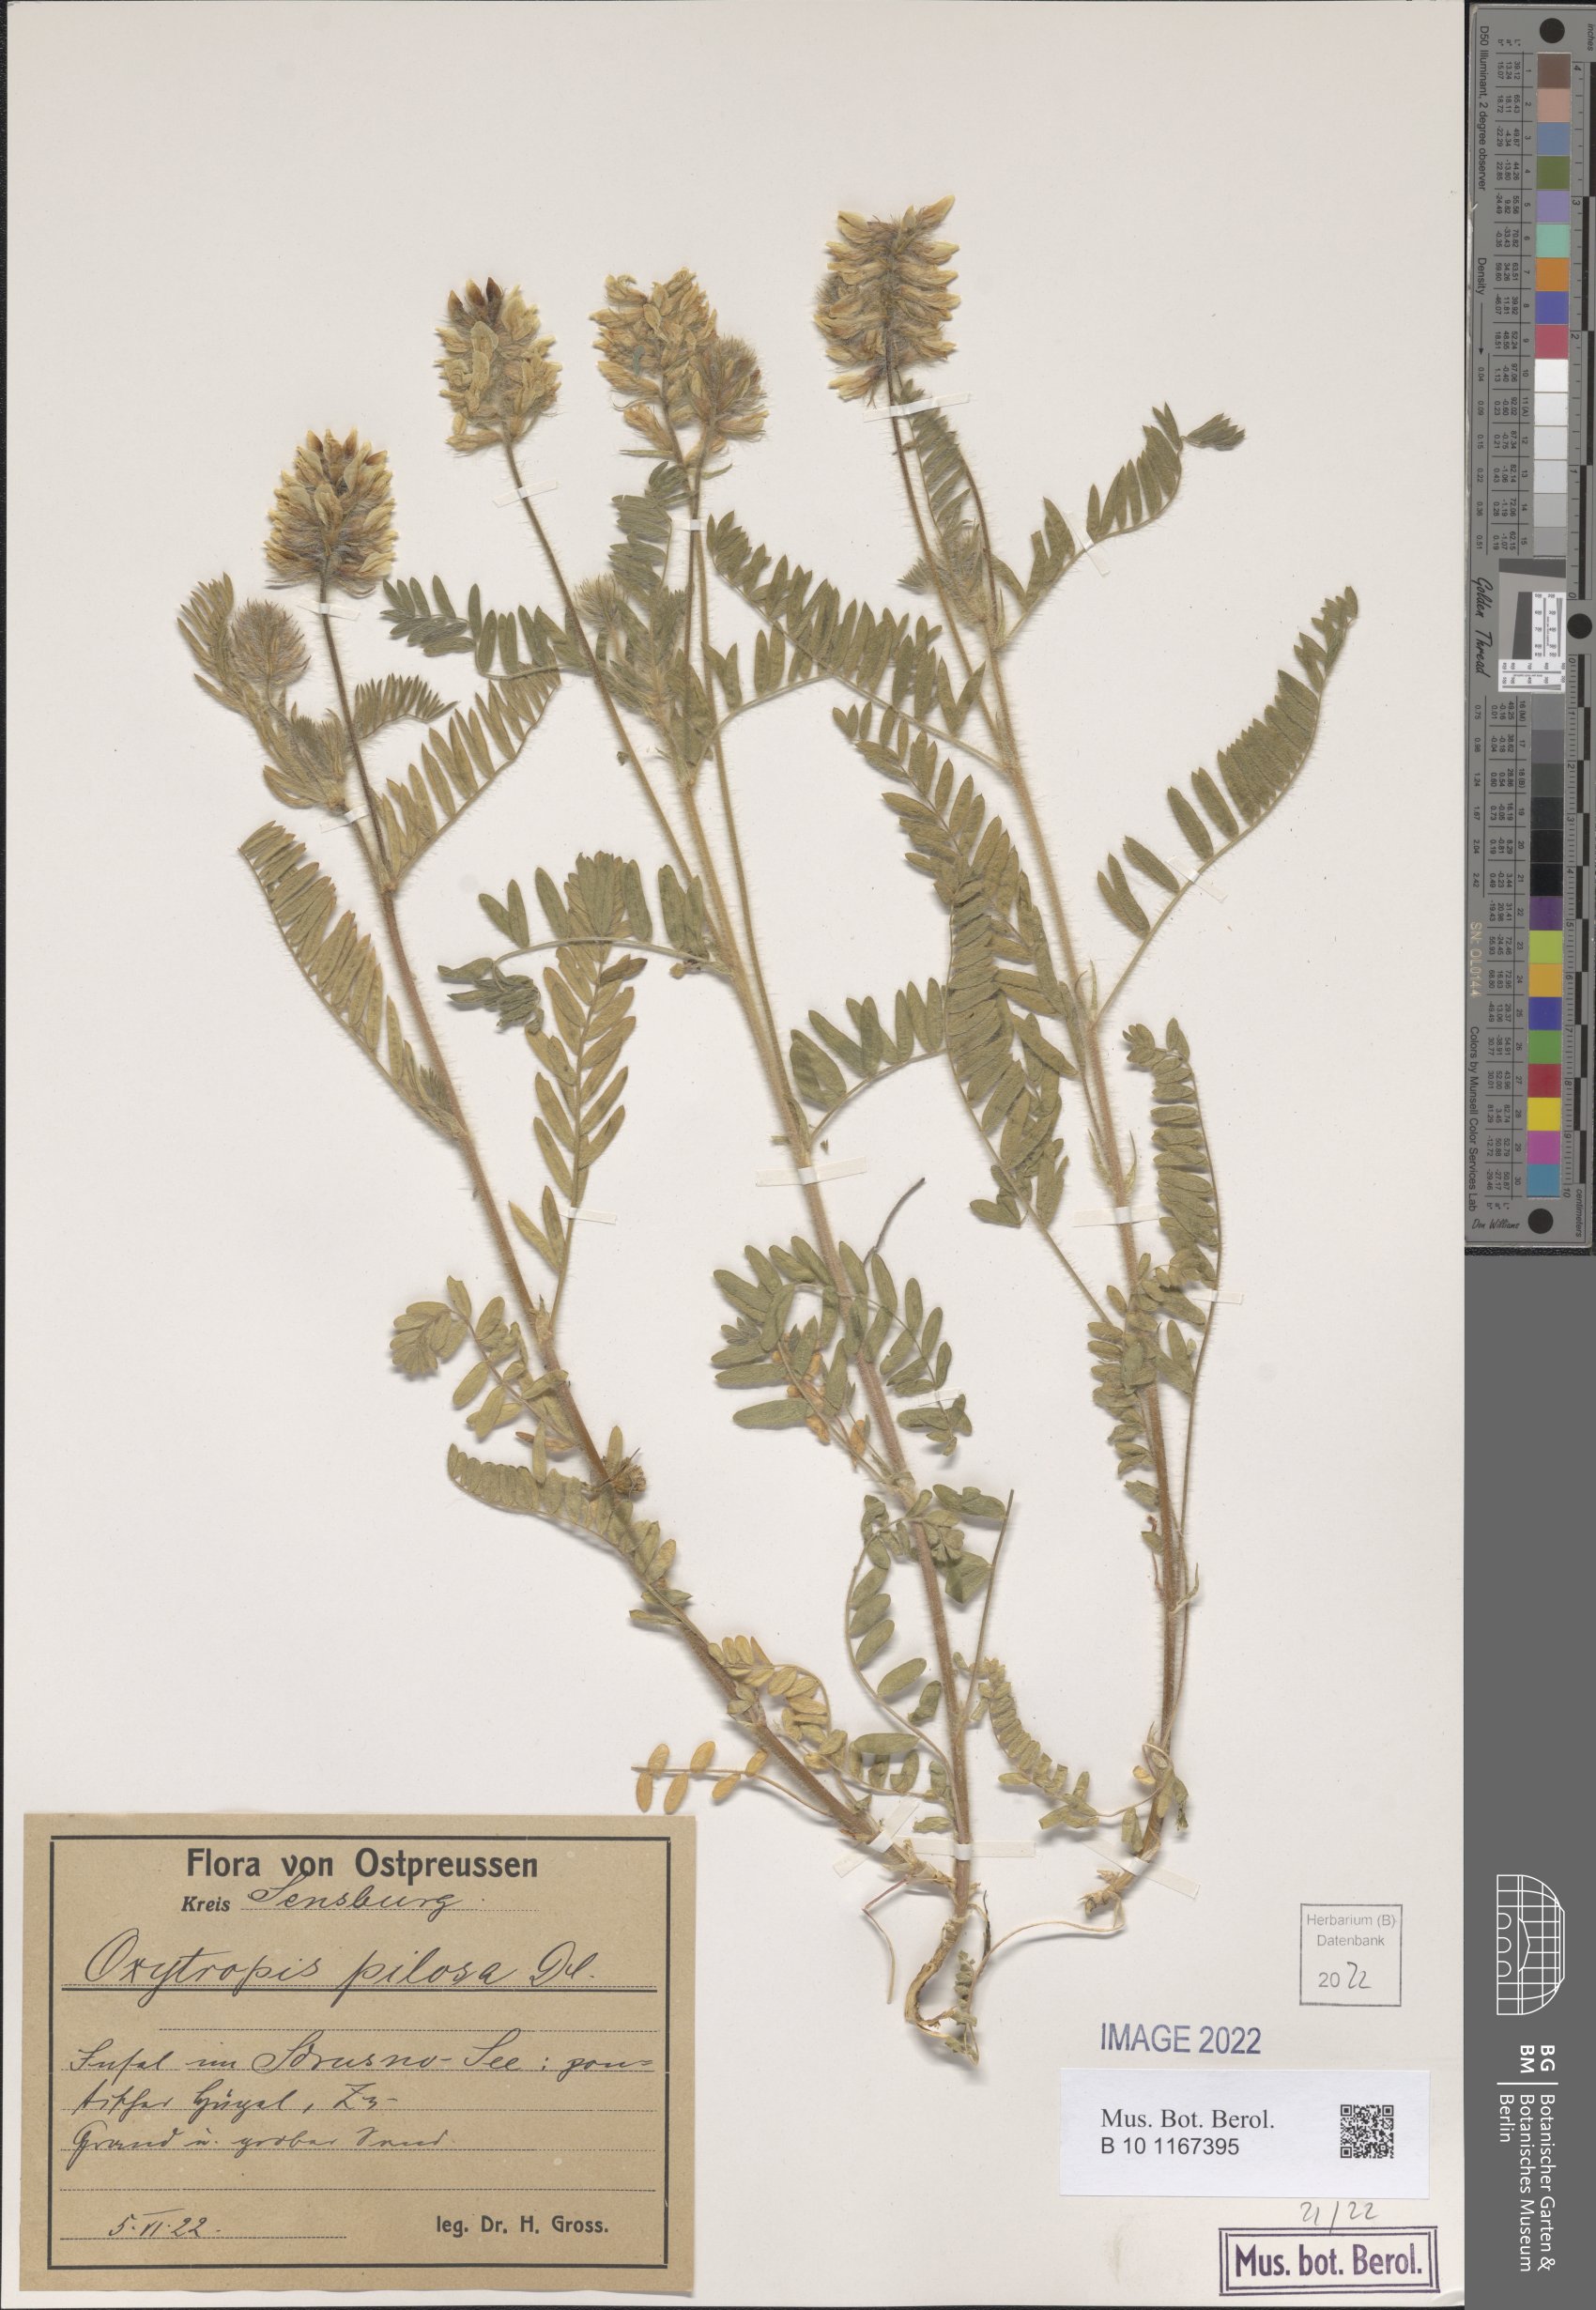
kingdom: Plantae
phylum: Tracheophyta
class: Magnoliopsida
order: Fabales
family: Fabaceae
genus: Oxytropis
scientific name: Oxytropis pilosa
